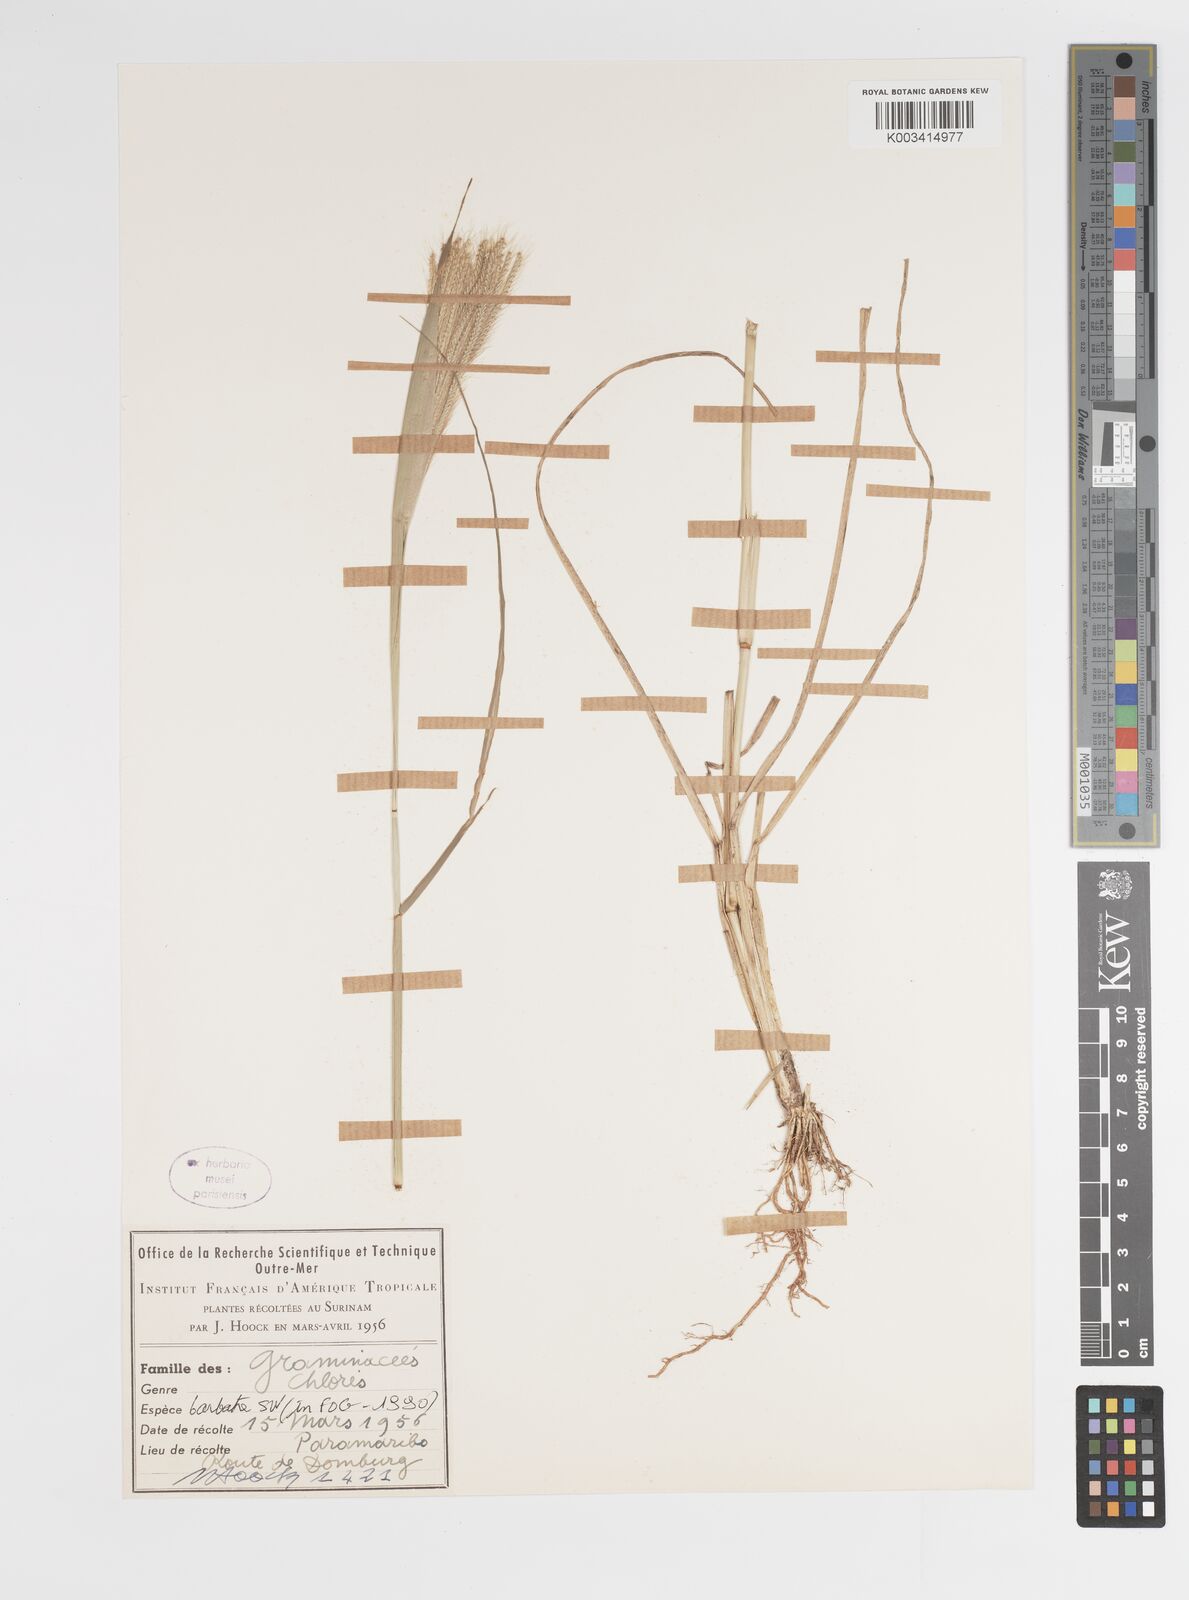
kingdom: Plantae
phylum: Tracheophyta
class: Liliopsida
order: Poales
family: Poaceae
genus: Chloris
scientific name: Chloris barbata
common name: Swollen fingergrass
